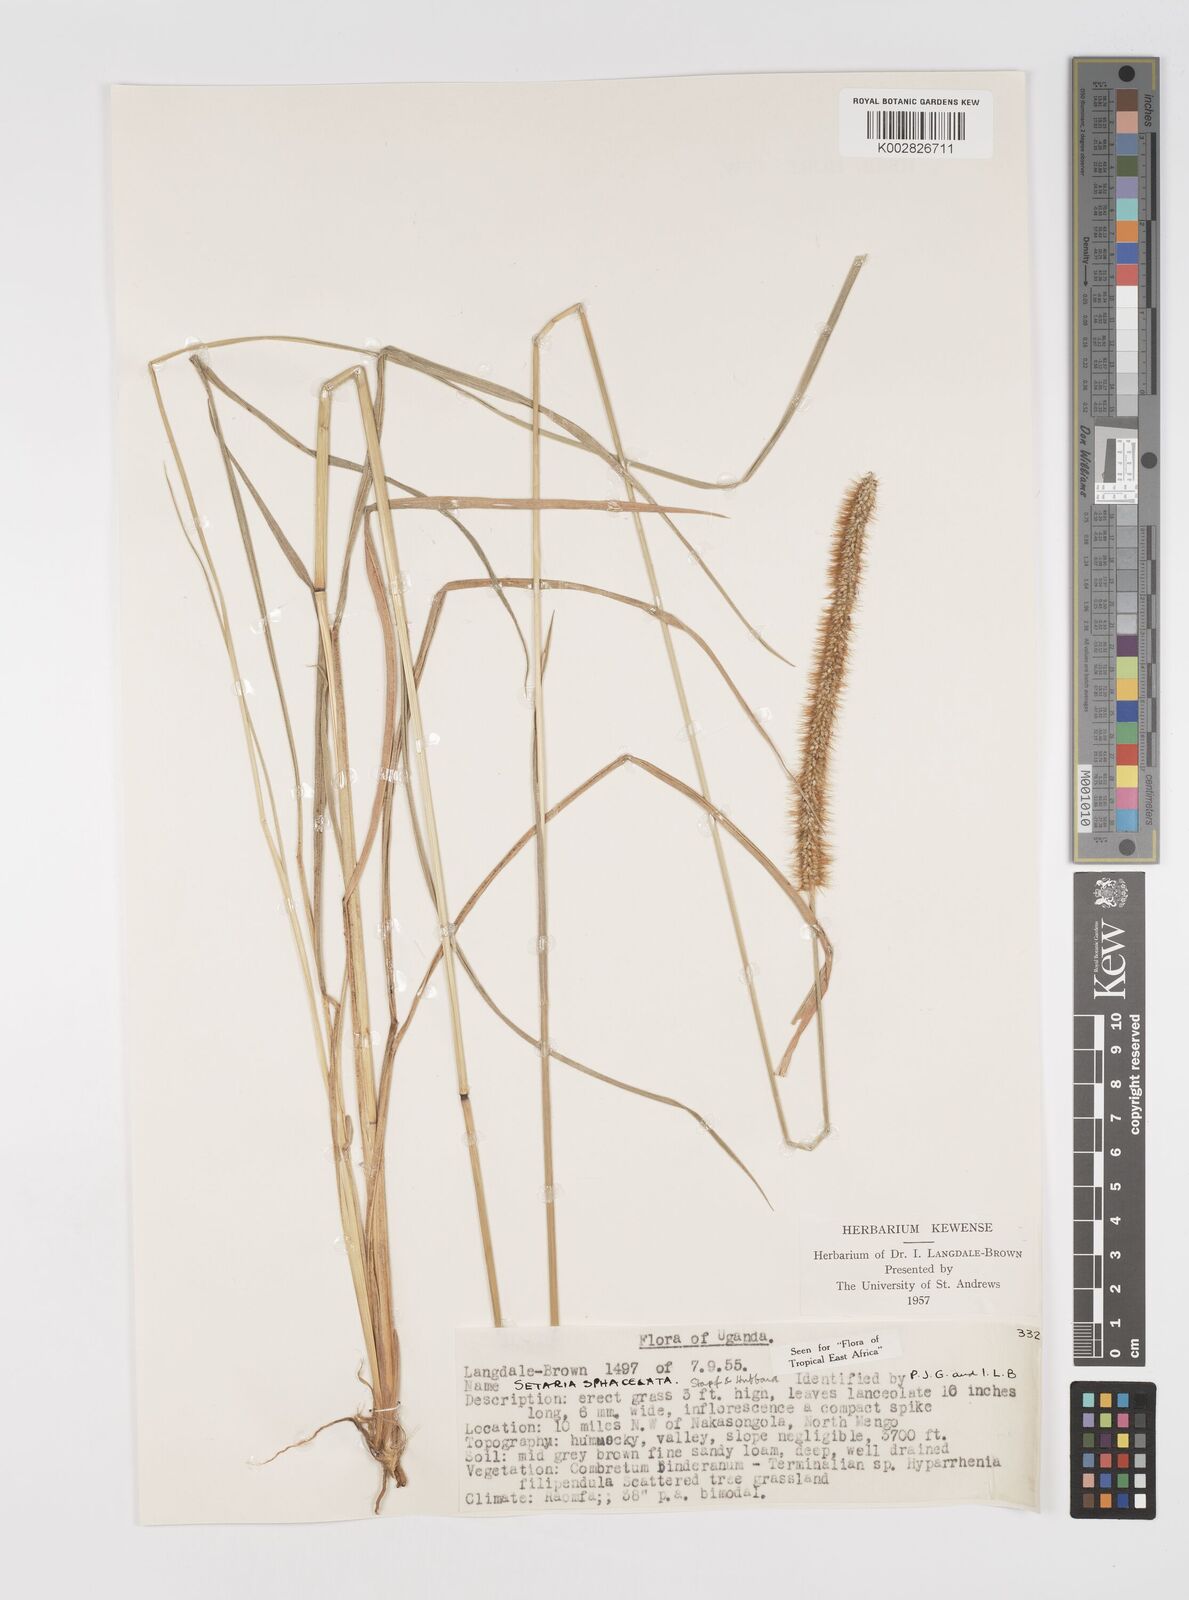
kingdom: Plantae
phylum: Tracheophyta
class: Liliopsida
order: Poales
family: Poaceae
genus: Setaria
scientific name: Setaria sphacelata
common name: African bristlegrass
